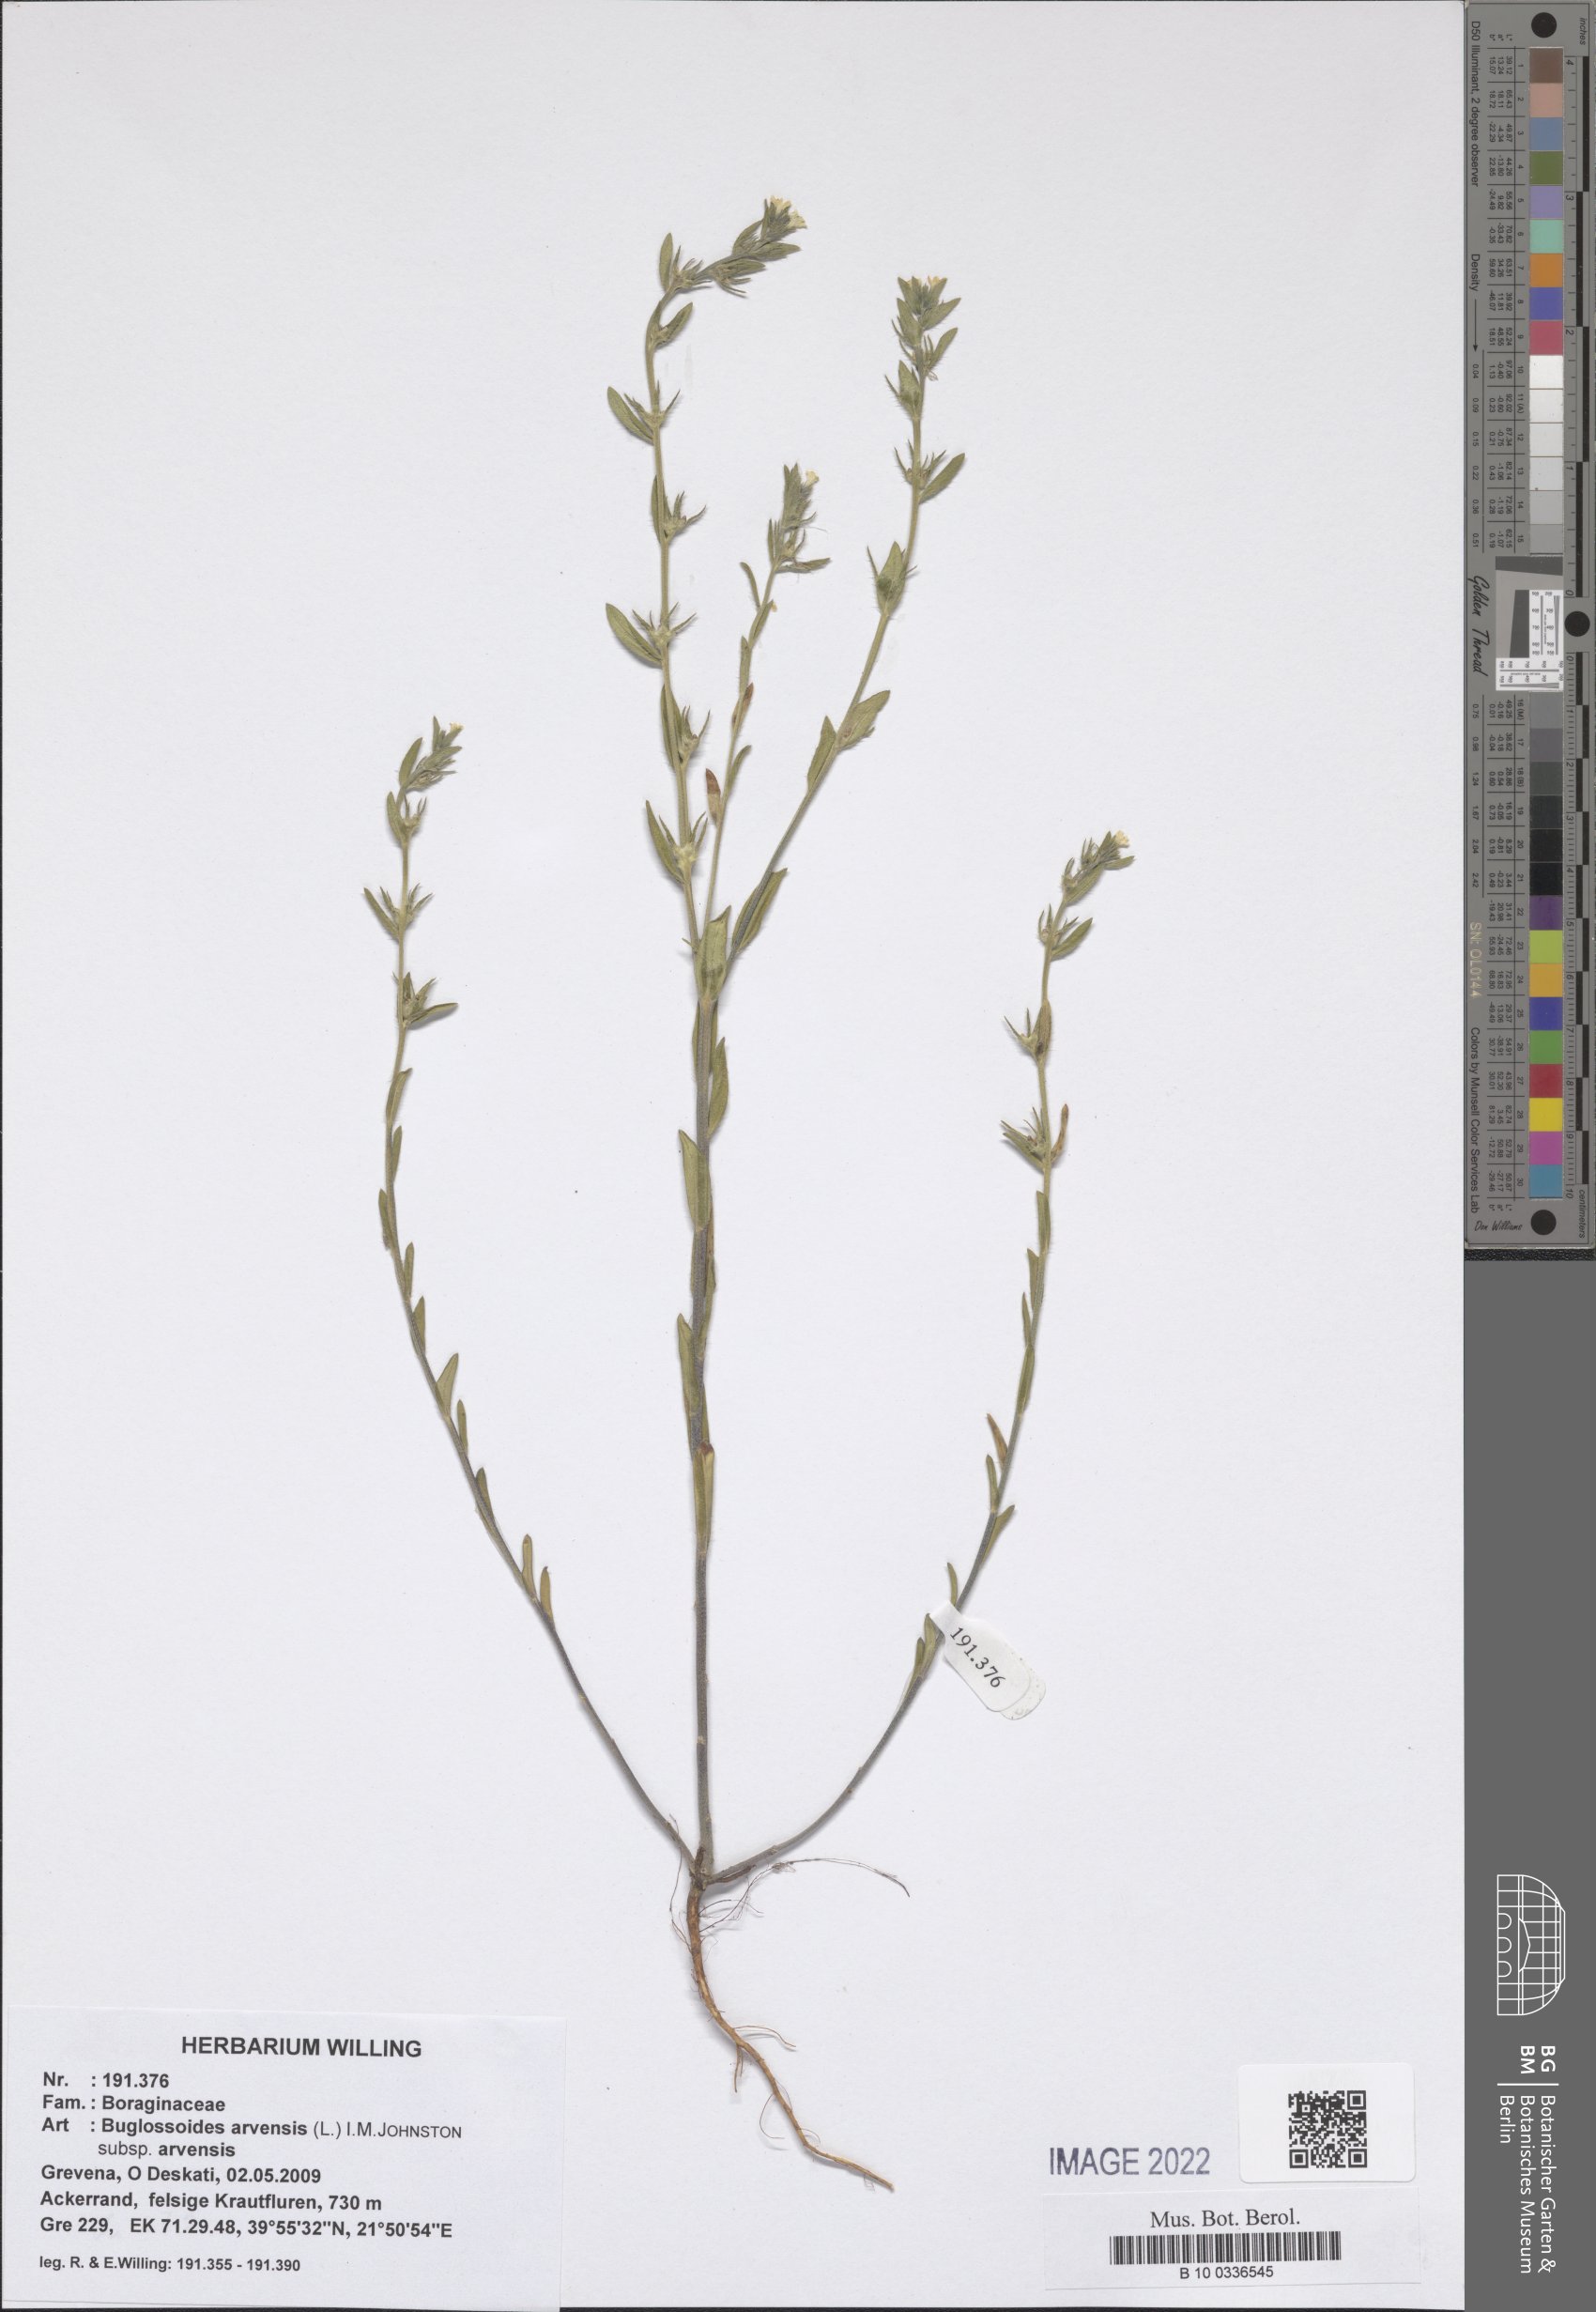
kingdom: Plantae
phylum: Tracheophyta
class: Magnoliopsida
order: Boraginales
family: Boraginaceae
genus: Buglossoides
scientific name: Buglossoides arvensis
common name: Corn gromwell
